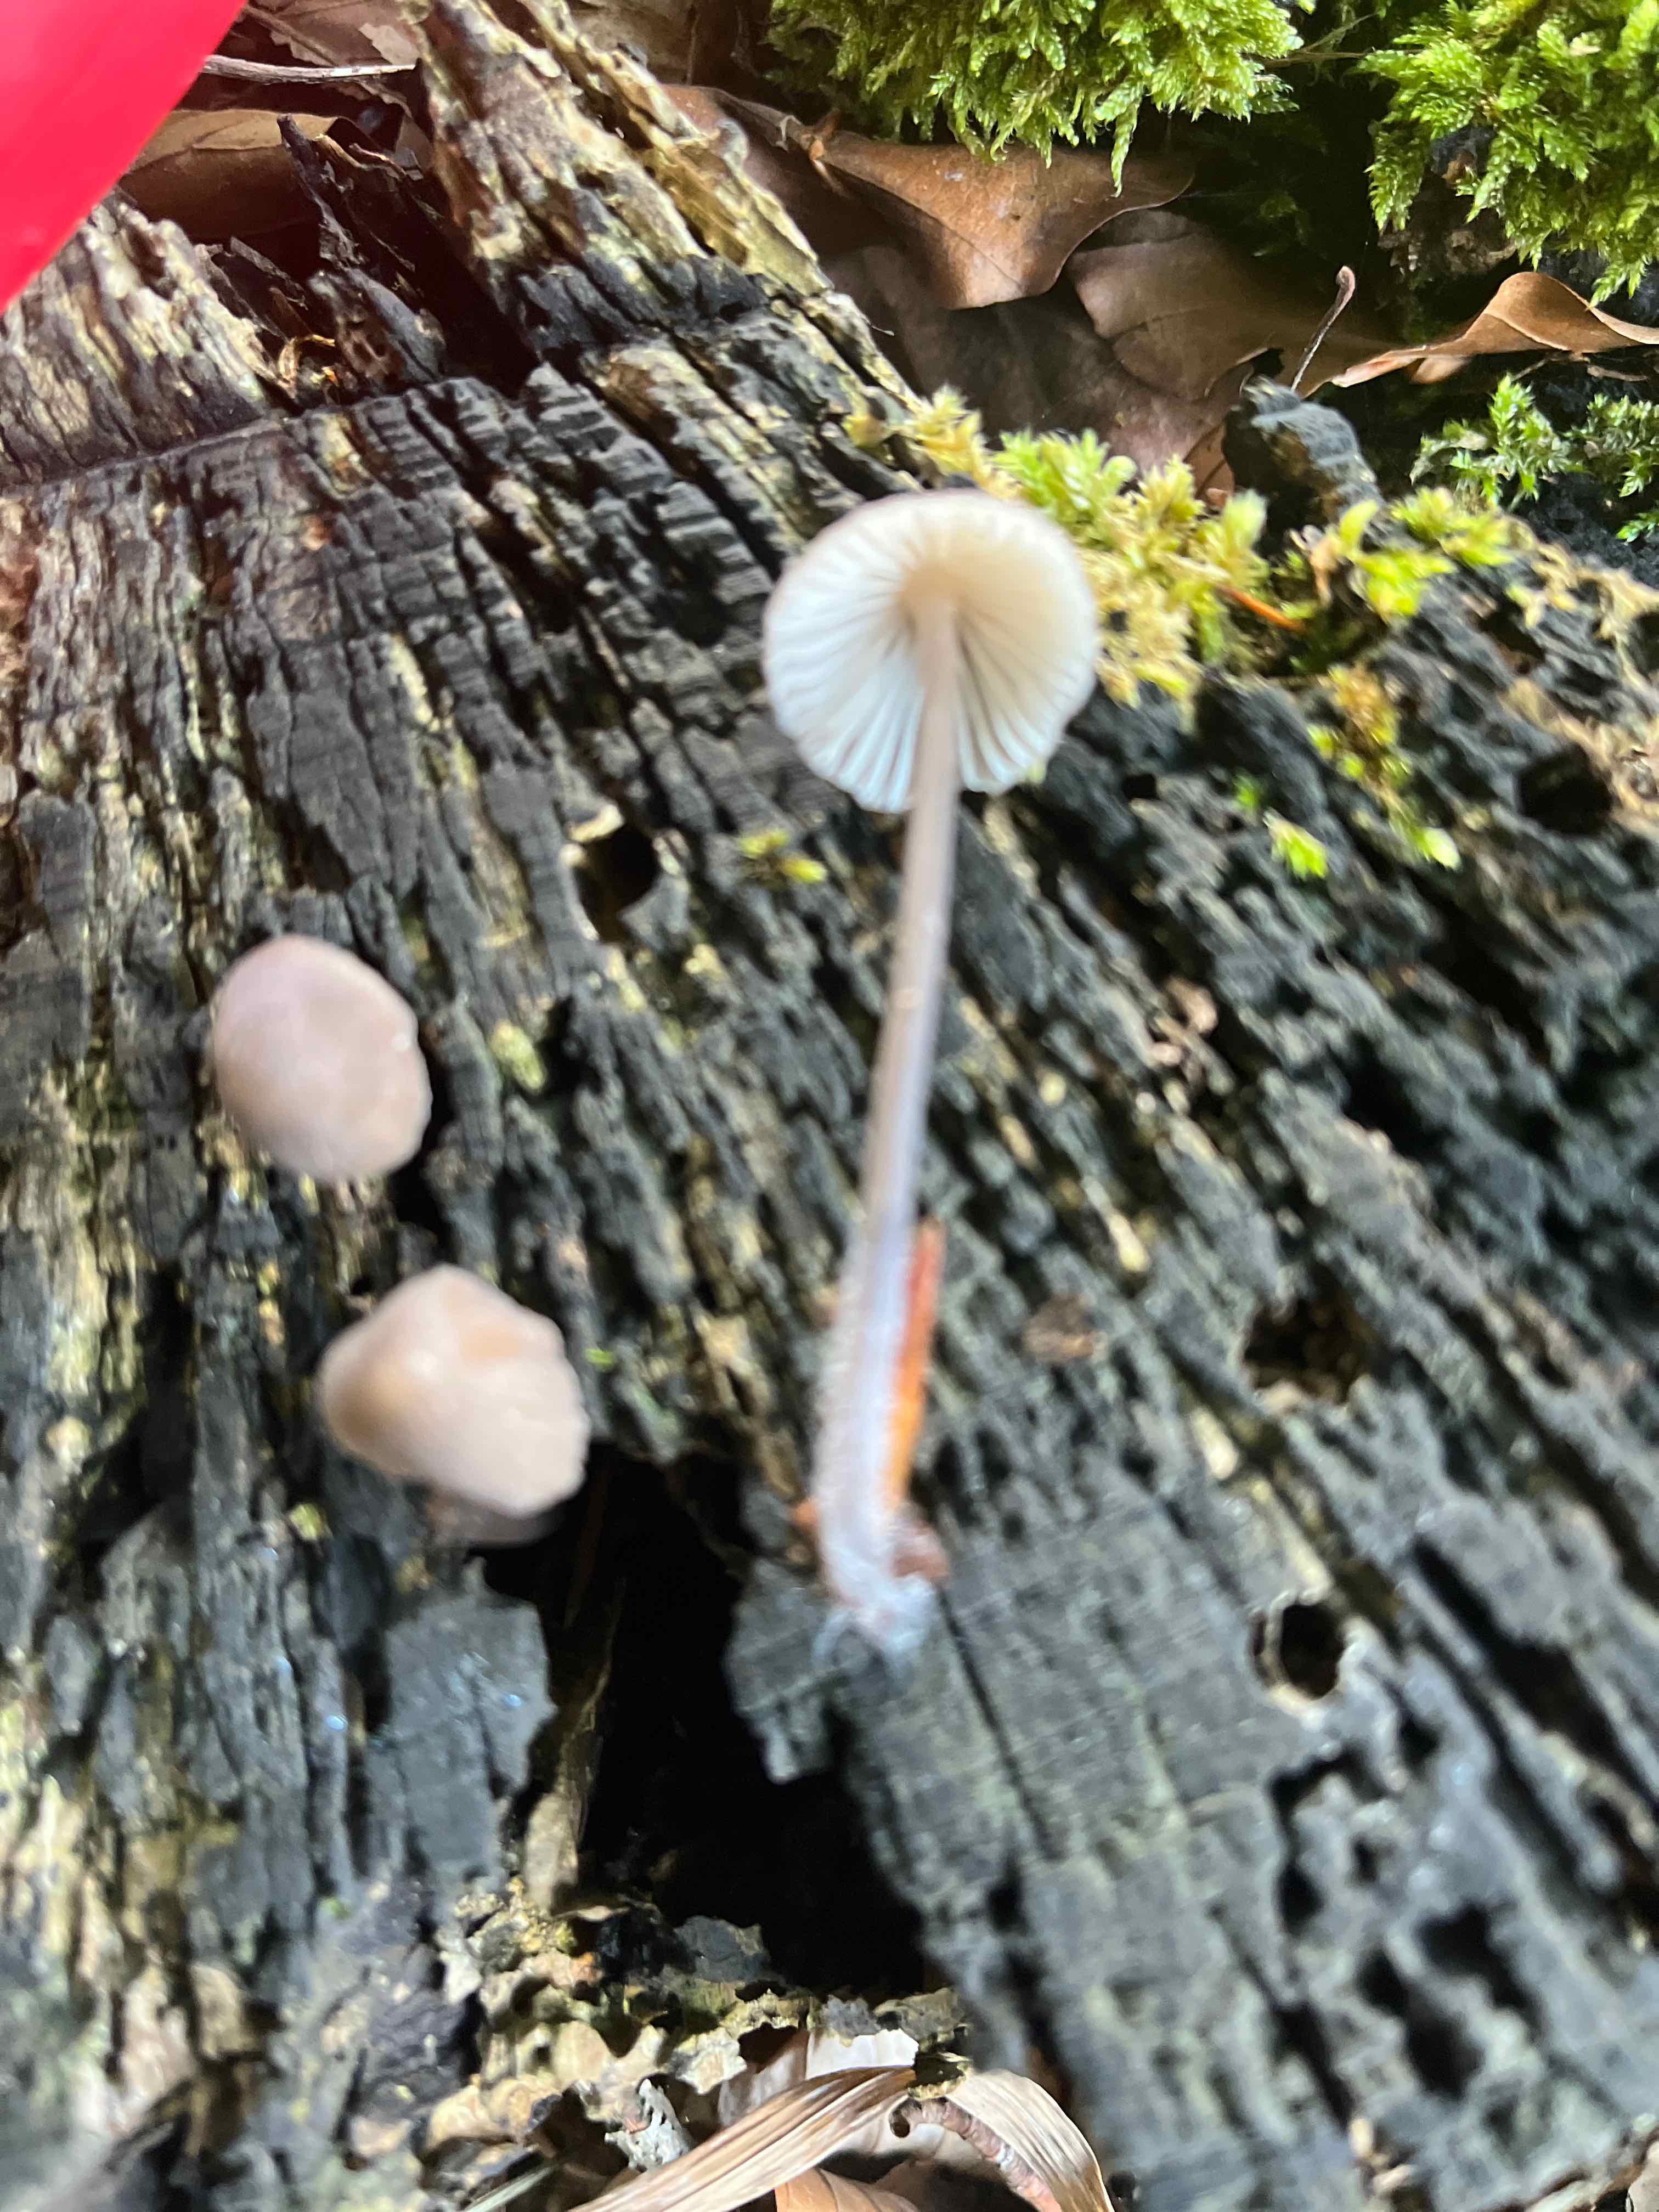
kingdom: Fungi
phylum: Basidiomycota
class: Agaricomycetes
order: Agaricales
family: Mycenaceae
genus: Mycena
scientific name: Mycena
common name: huesvamp
